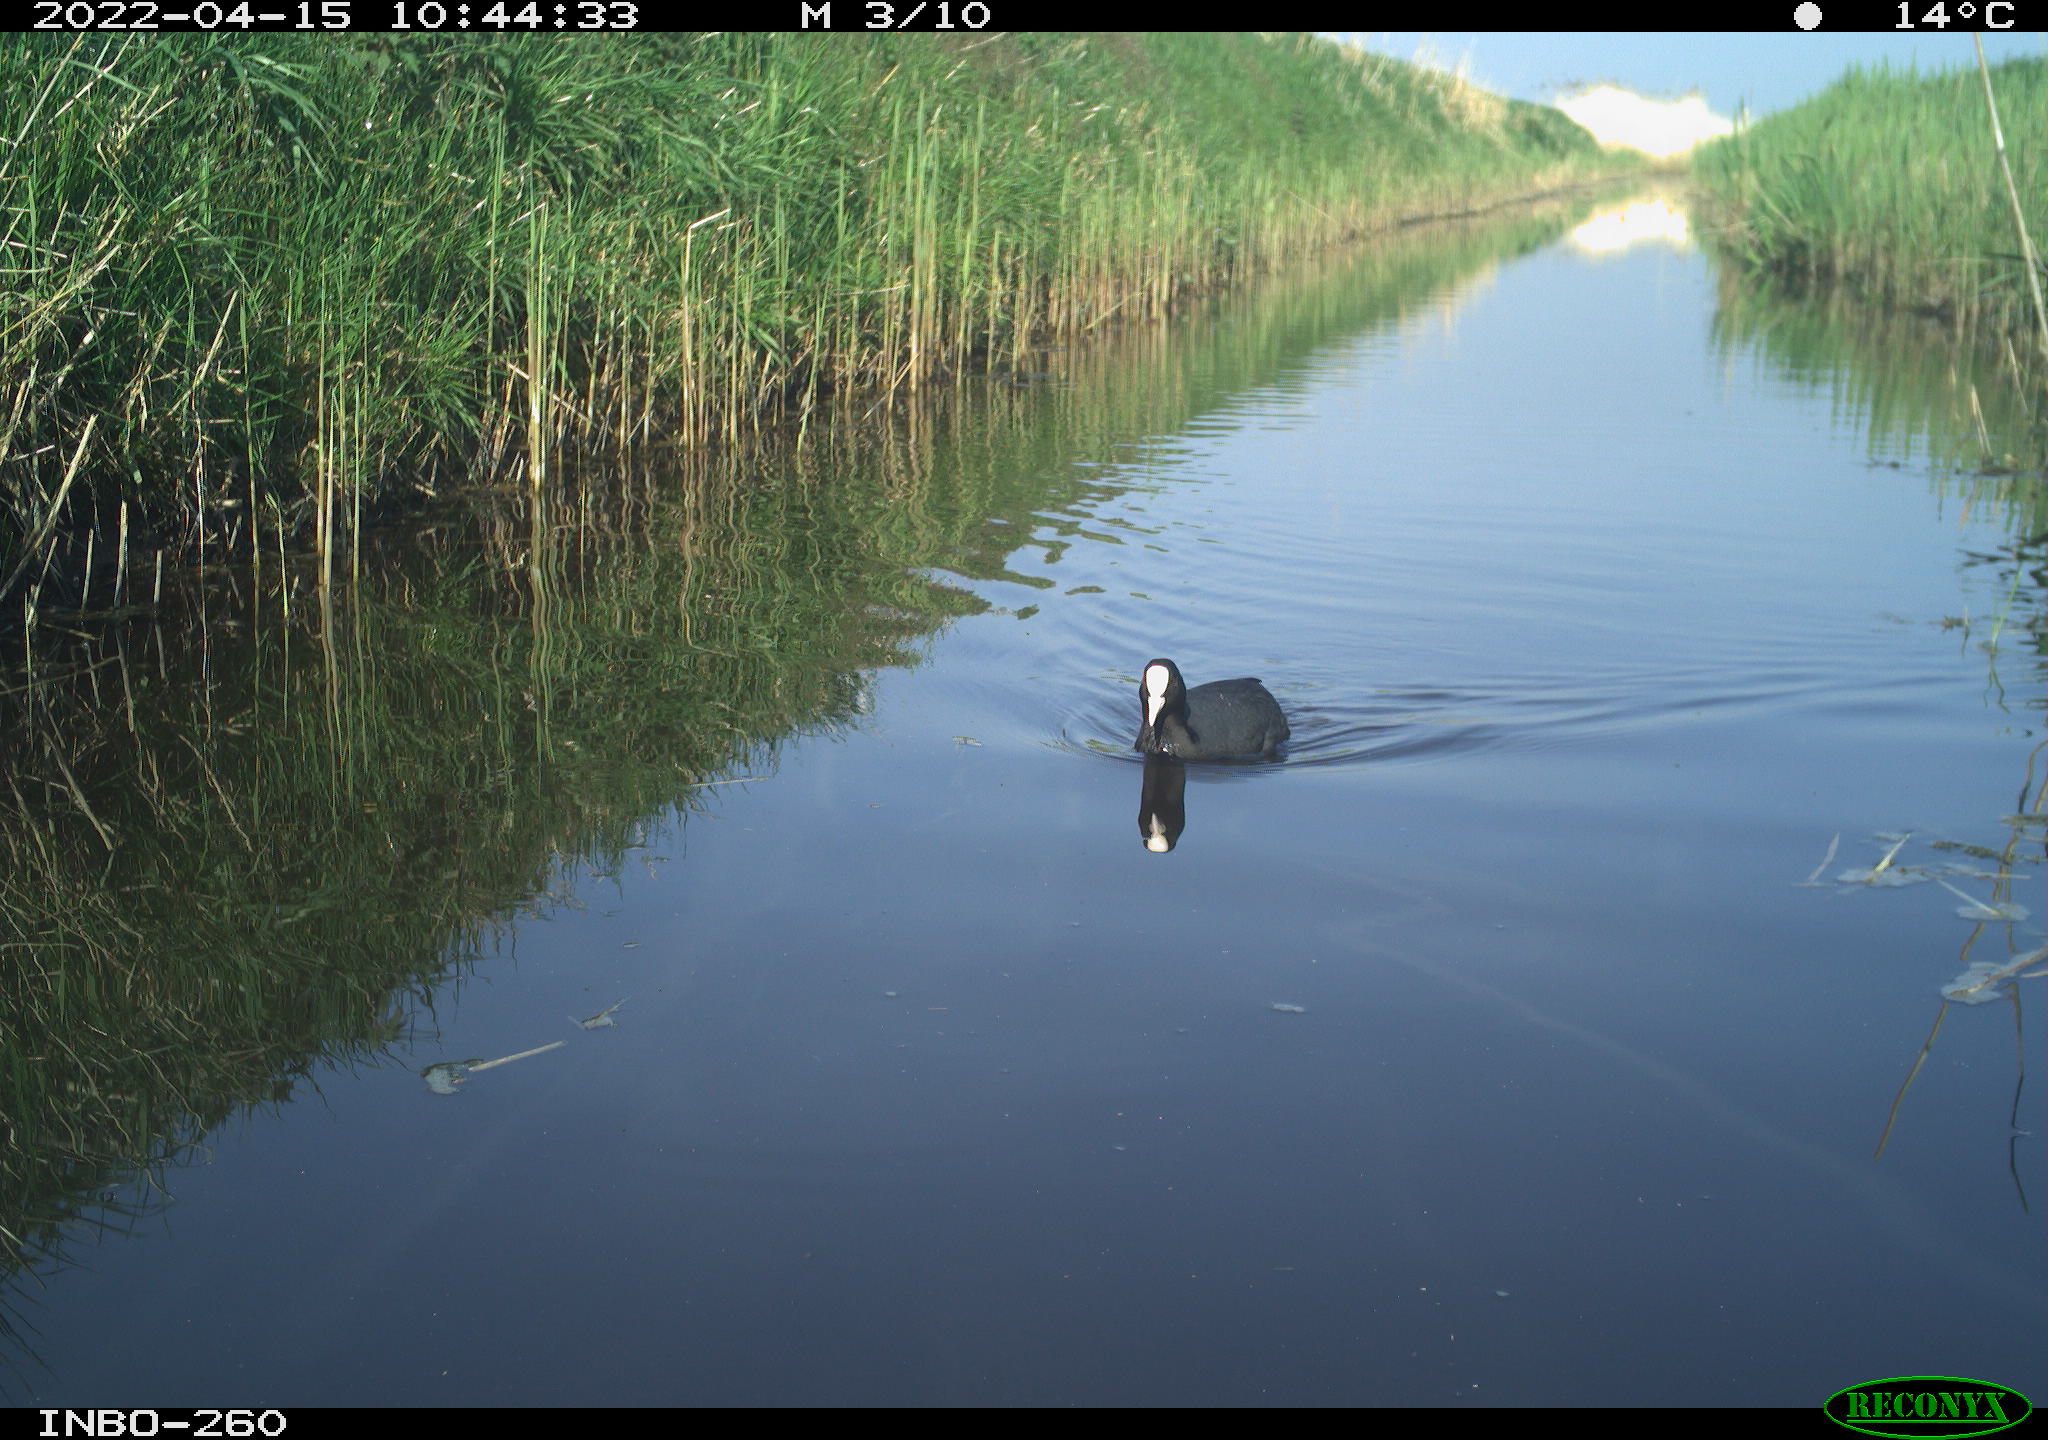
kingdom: Animalia
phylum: Chordata
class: Aves
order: Gruiformes
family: Rallidae
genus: Fulica
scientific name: Fulica atra
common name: Eurasian coot
